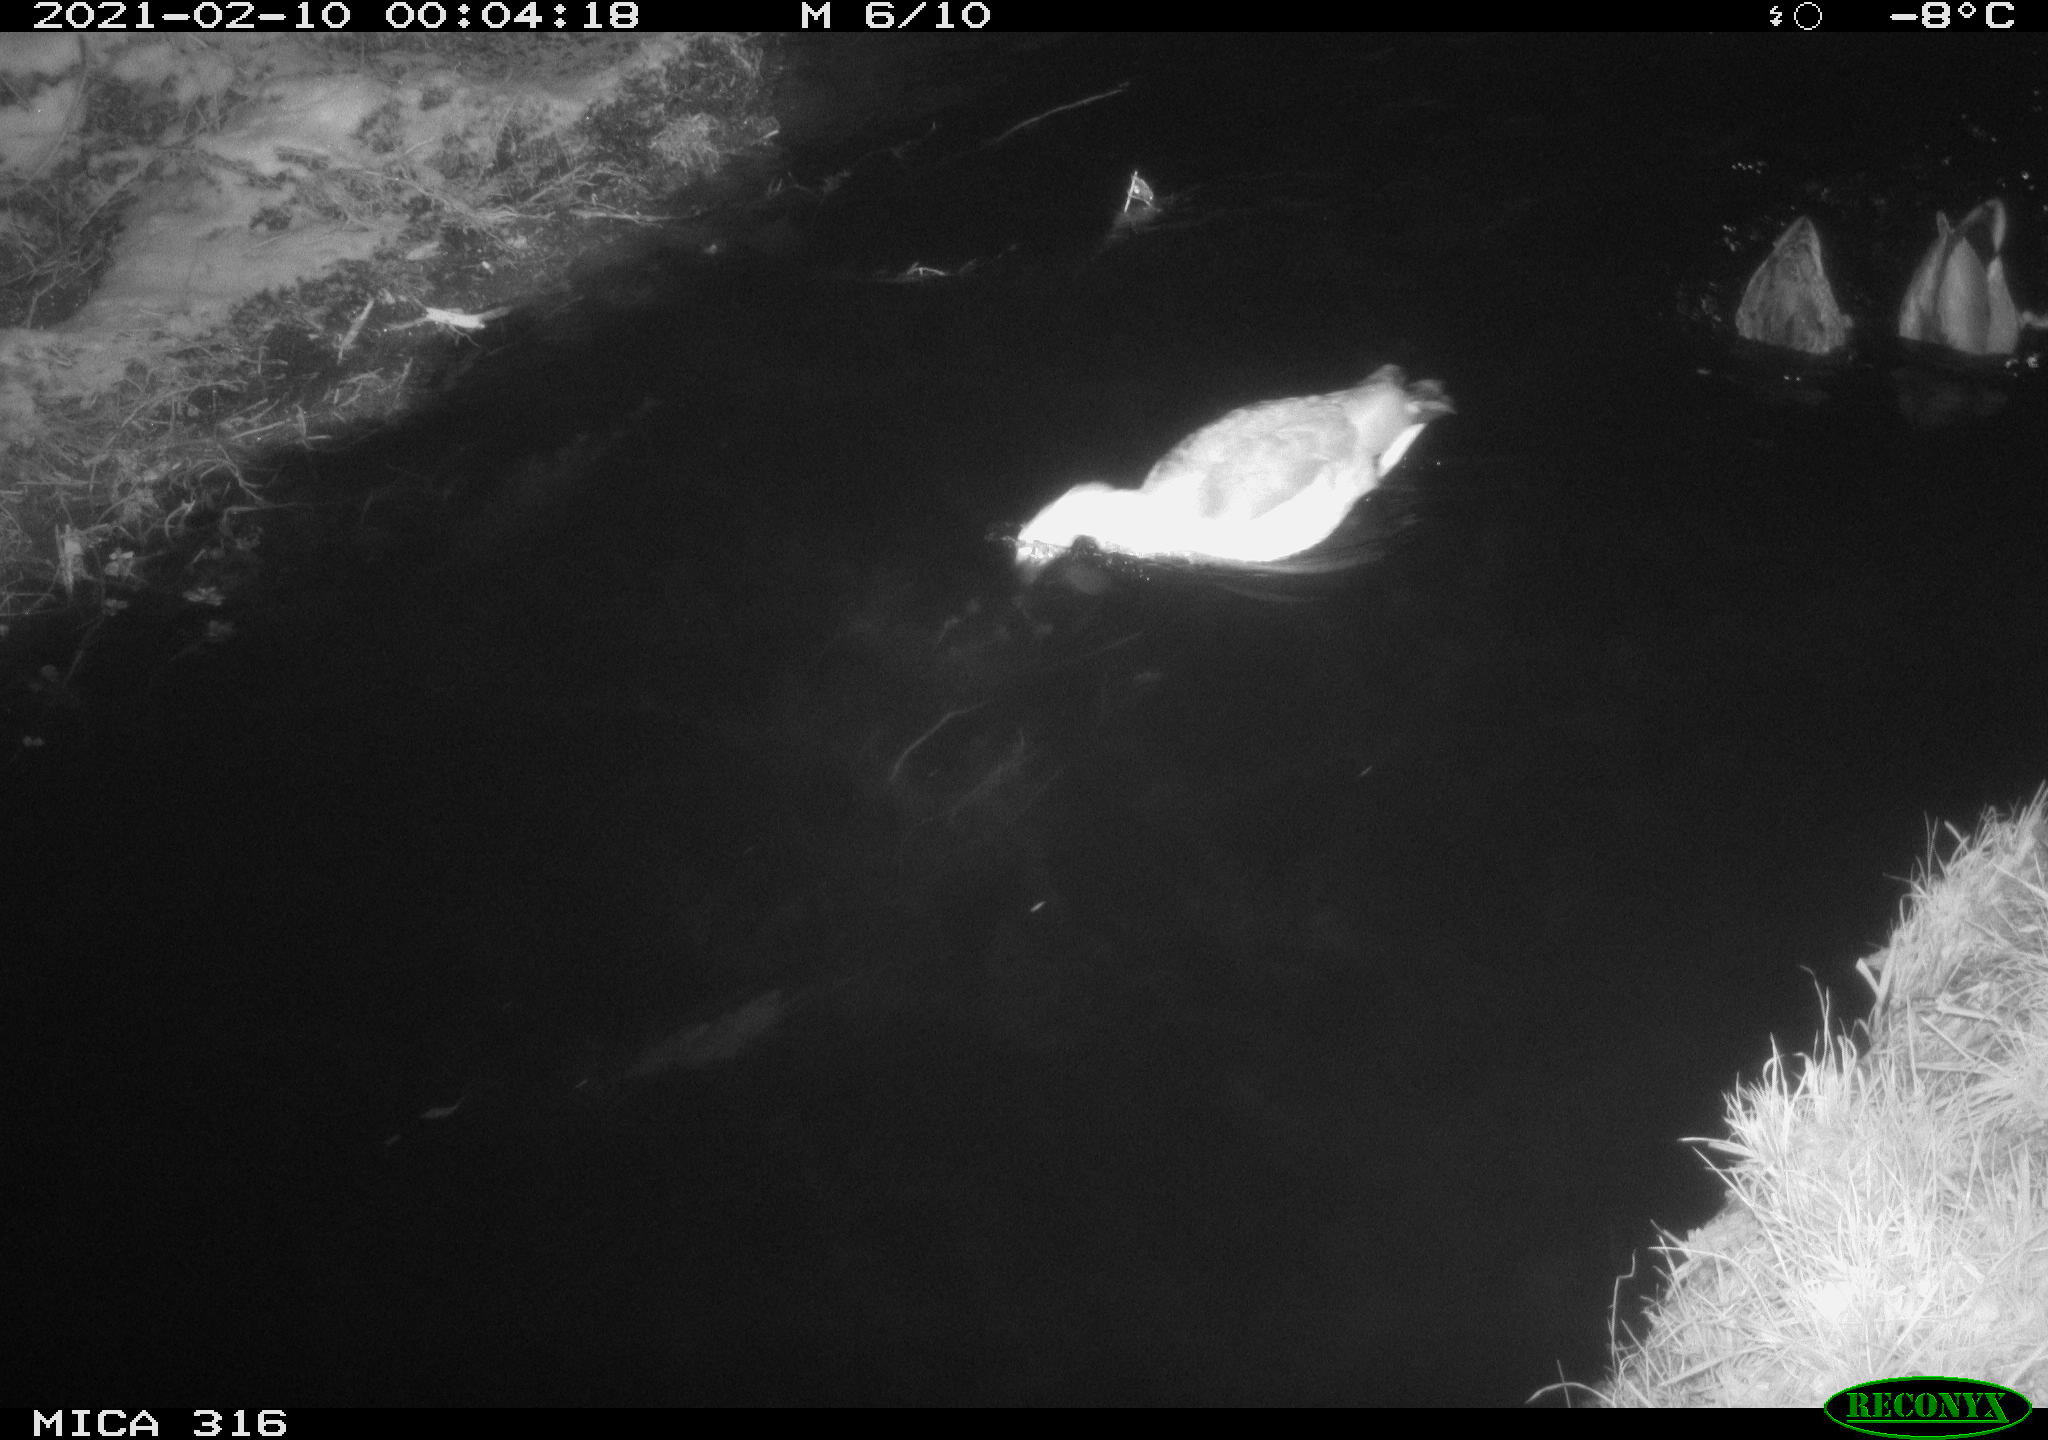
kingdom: Animalia
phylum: Chordata
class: Aves
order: Anseriformes
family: Anatidae
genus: Anas
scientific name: Anas platyrhynchos
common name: Mallard
